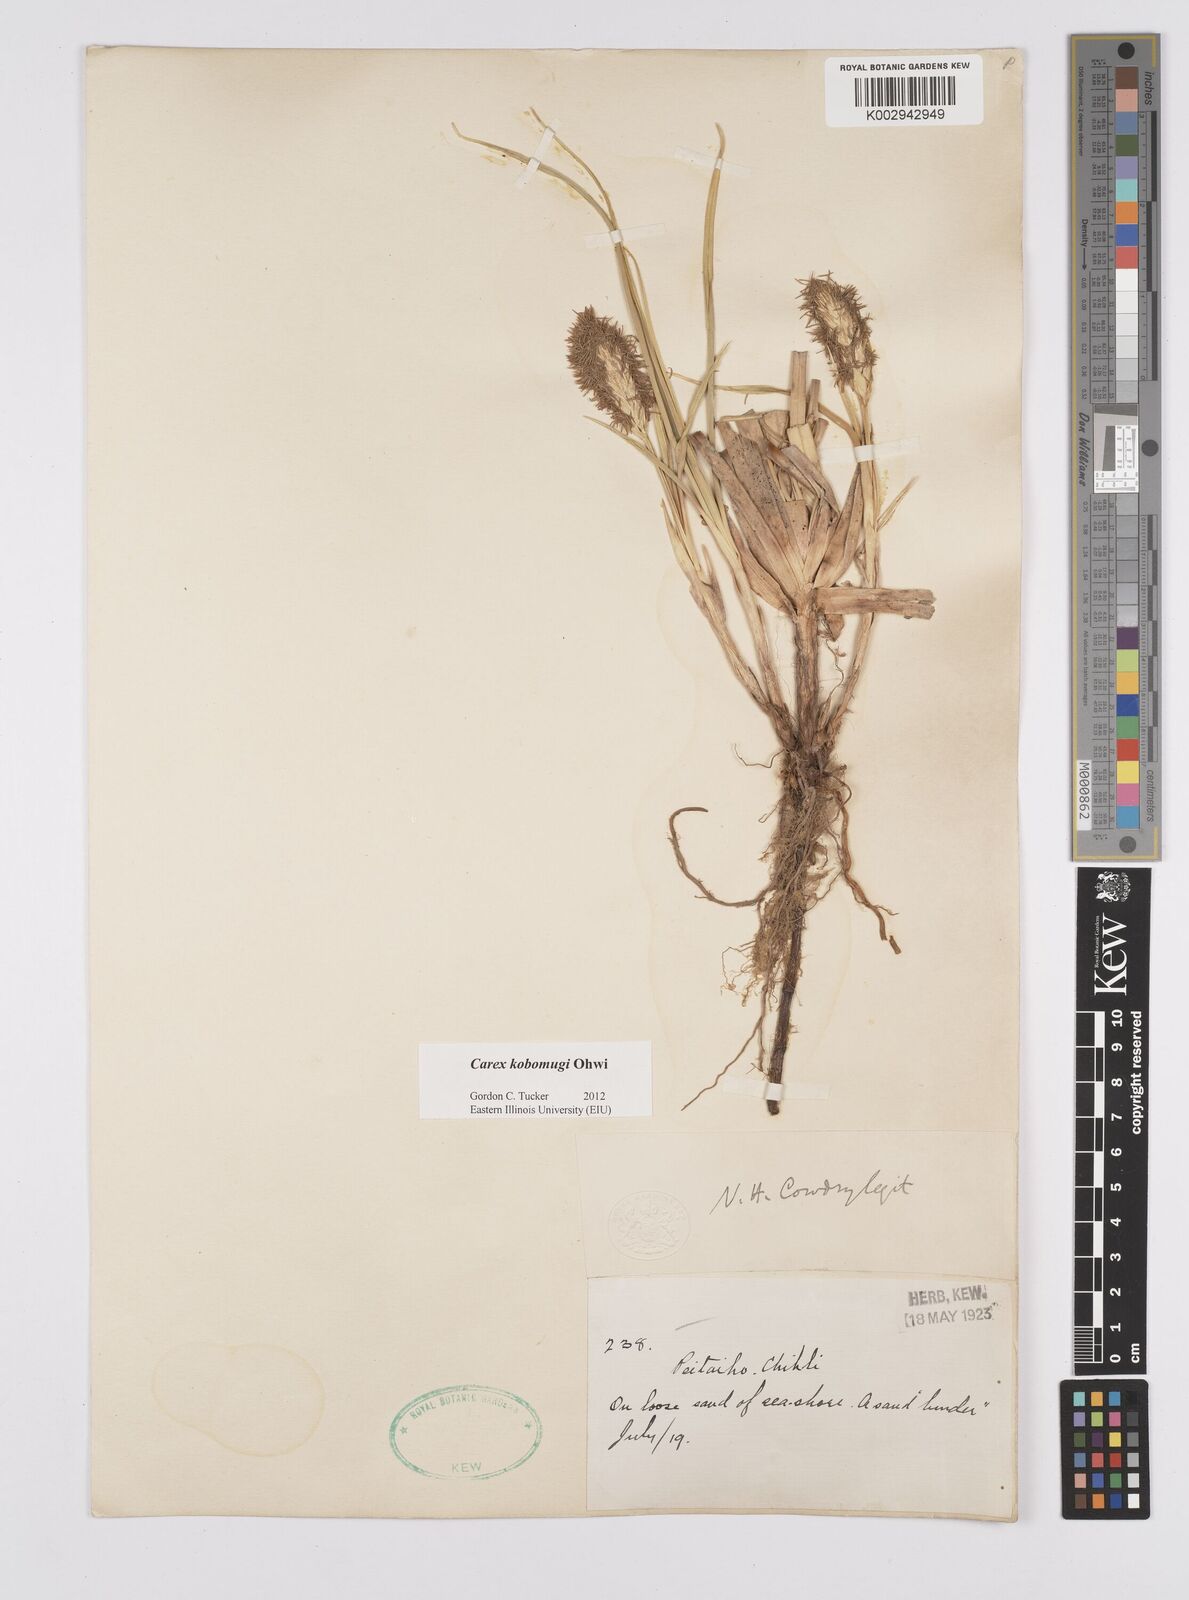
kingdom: Plantae
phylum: Tracheophyta
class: Liliopsida
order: Poales
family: Cyperaceae
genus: Carex
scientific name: Carex kobomugi
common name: Japanese sedge
